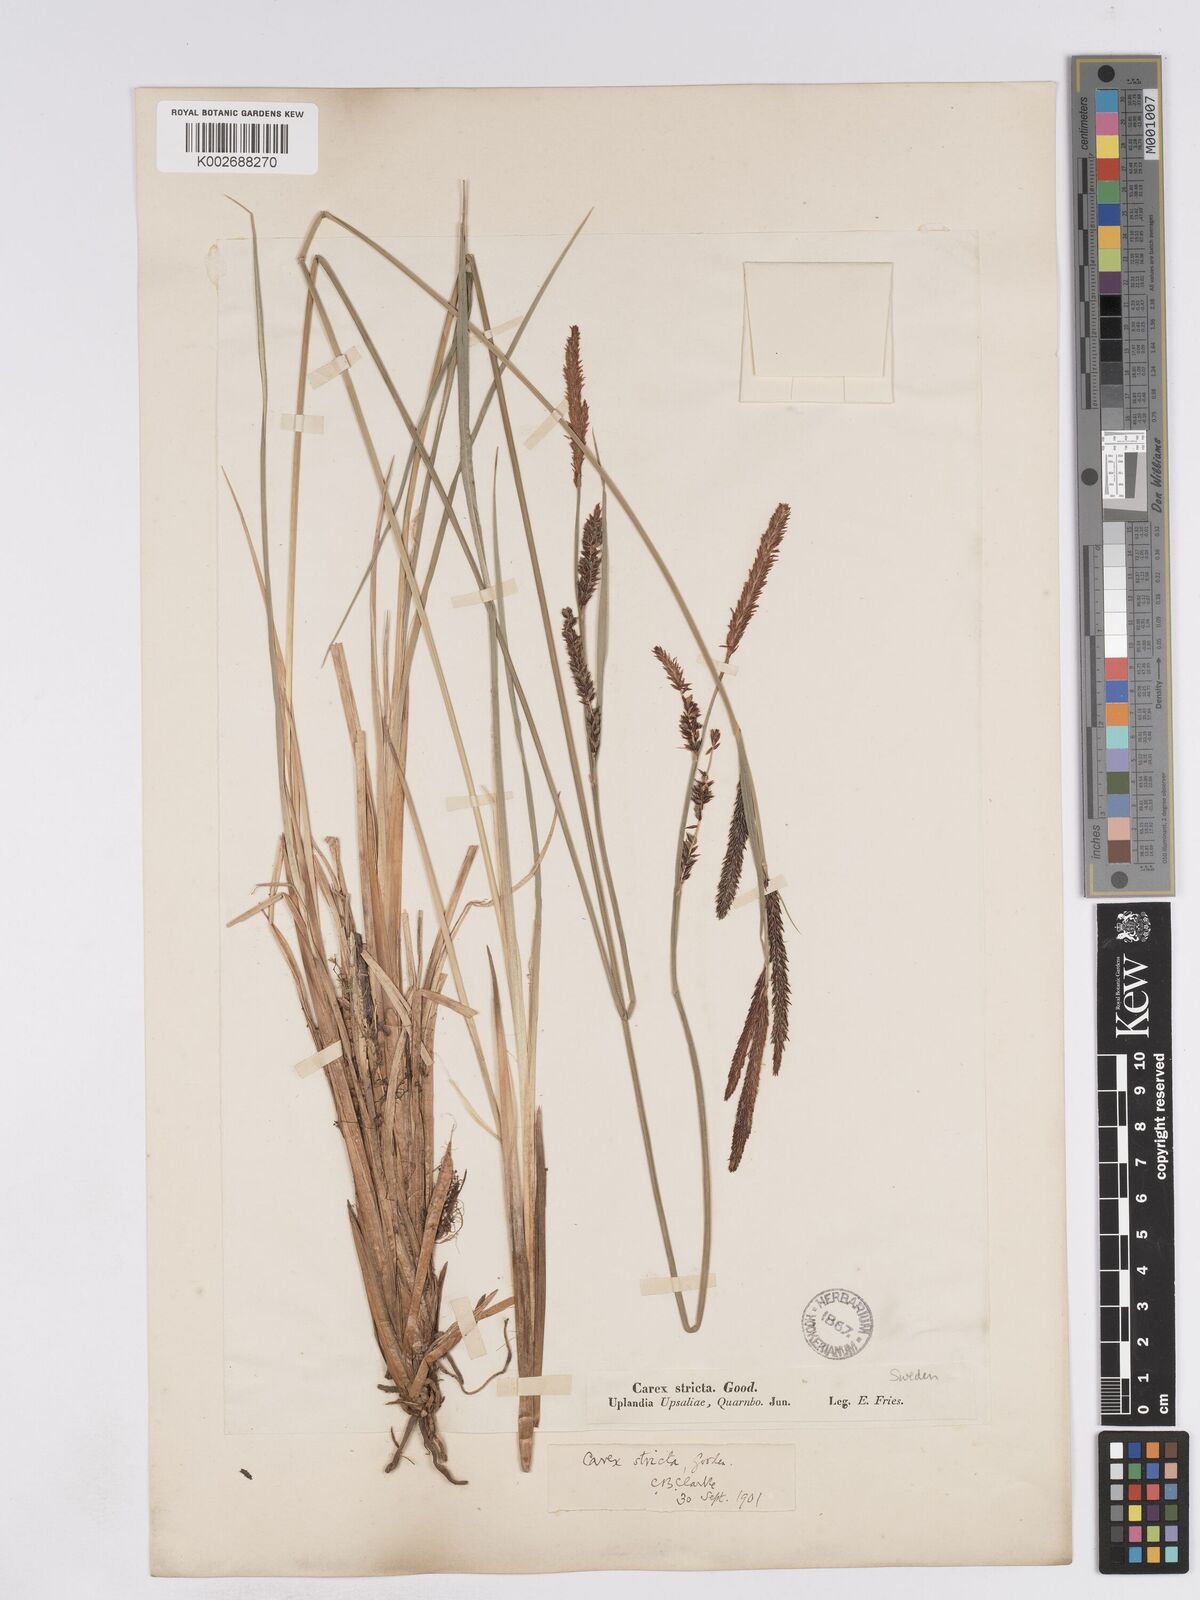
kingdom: Plantae
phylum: Tracheophyta
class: Liliopsida
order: Poales
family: Cyperaceae
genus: Carex
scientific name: Carex elata
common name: Tufted sedge
